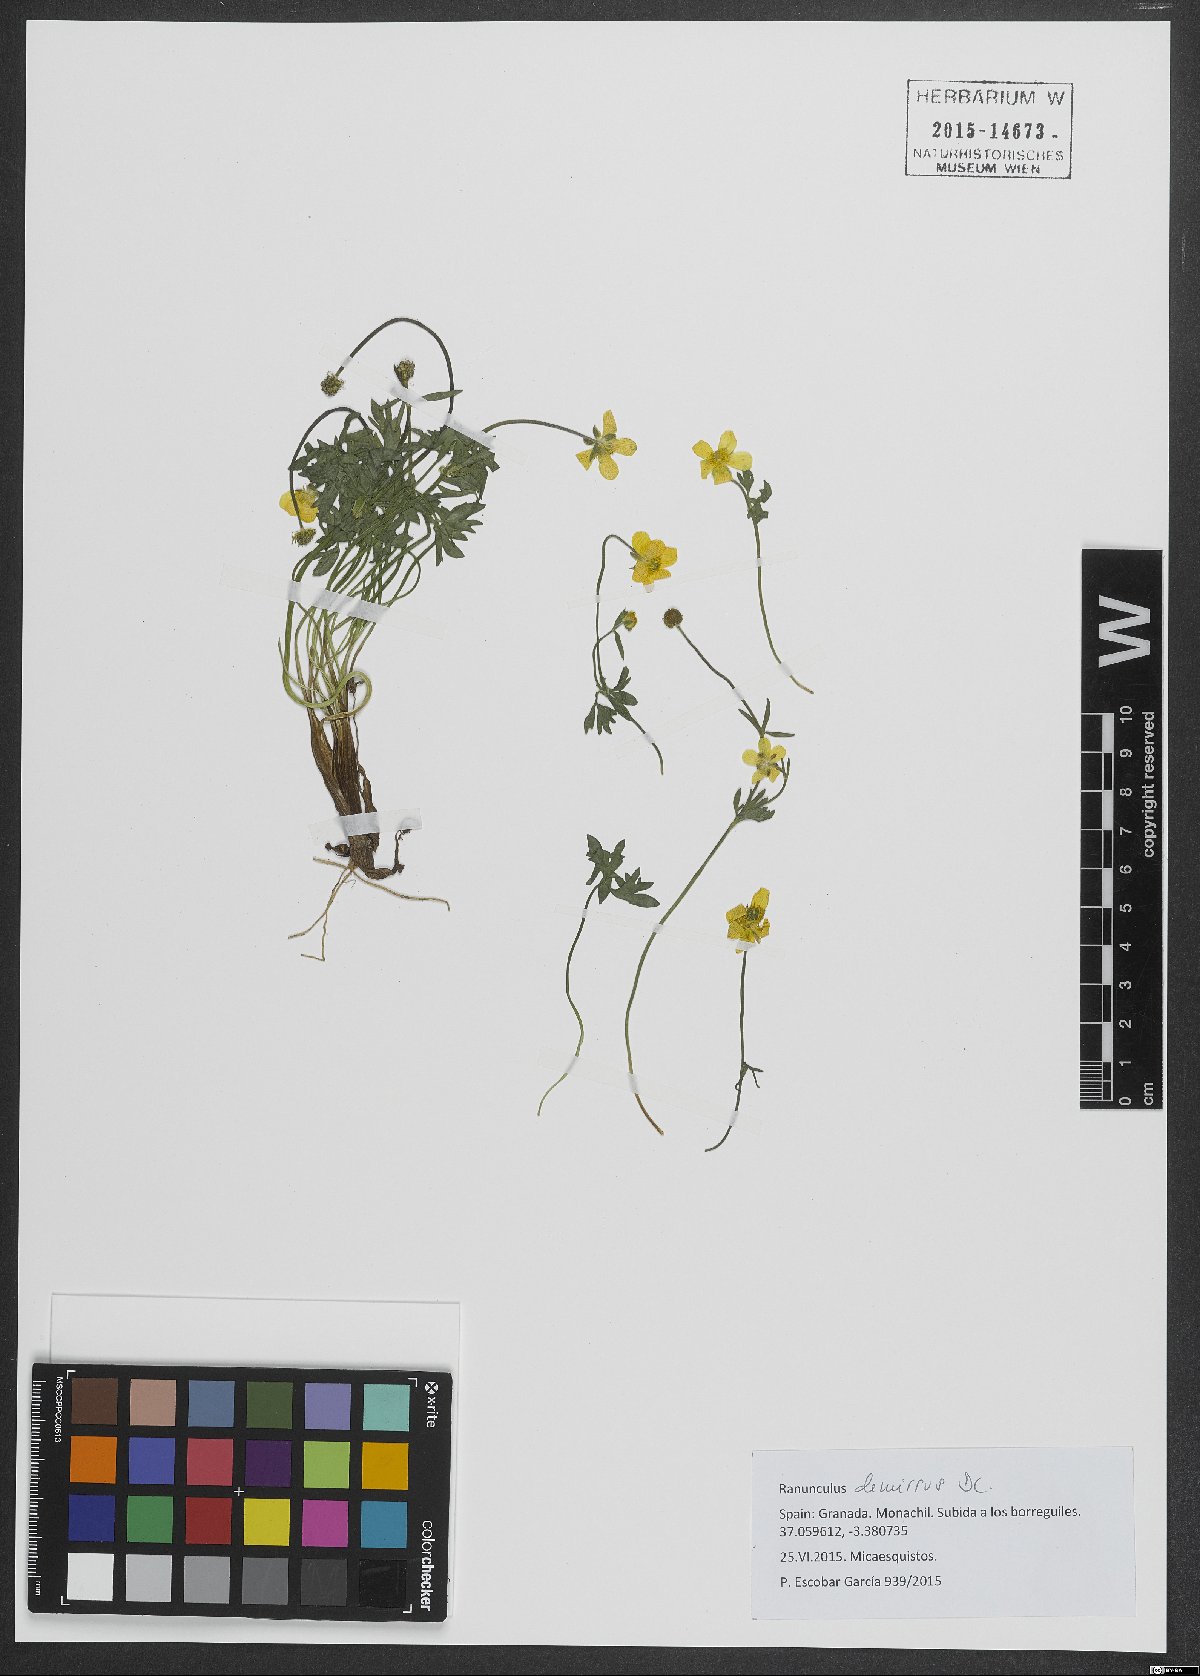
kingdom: Plantae
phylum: Tracheophyta
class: Magnoliopsida
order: Ranunculales
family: Ranunculaceae
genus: Ranunculus
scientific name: Ranunculus demissus
